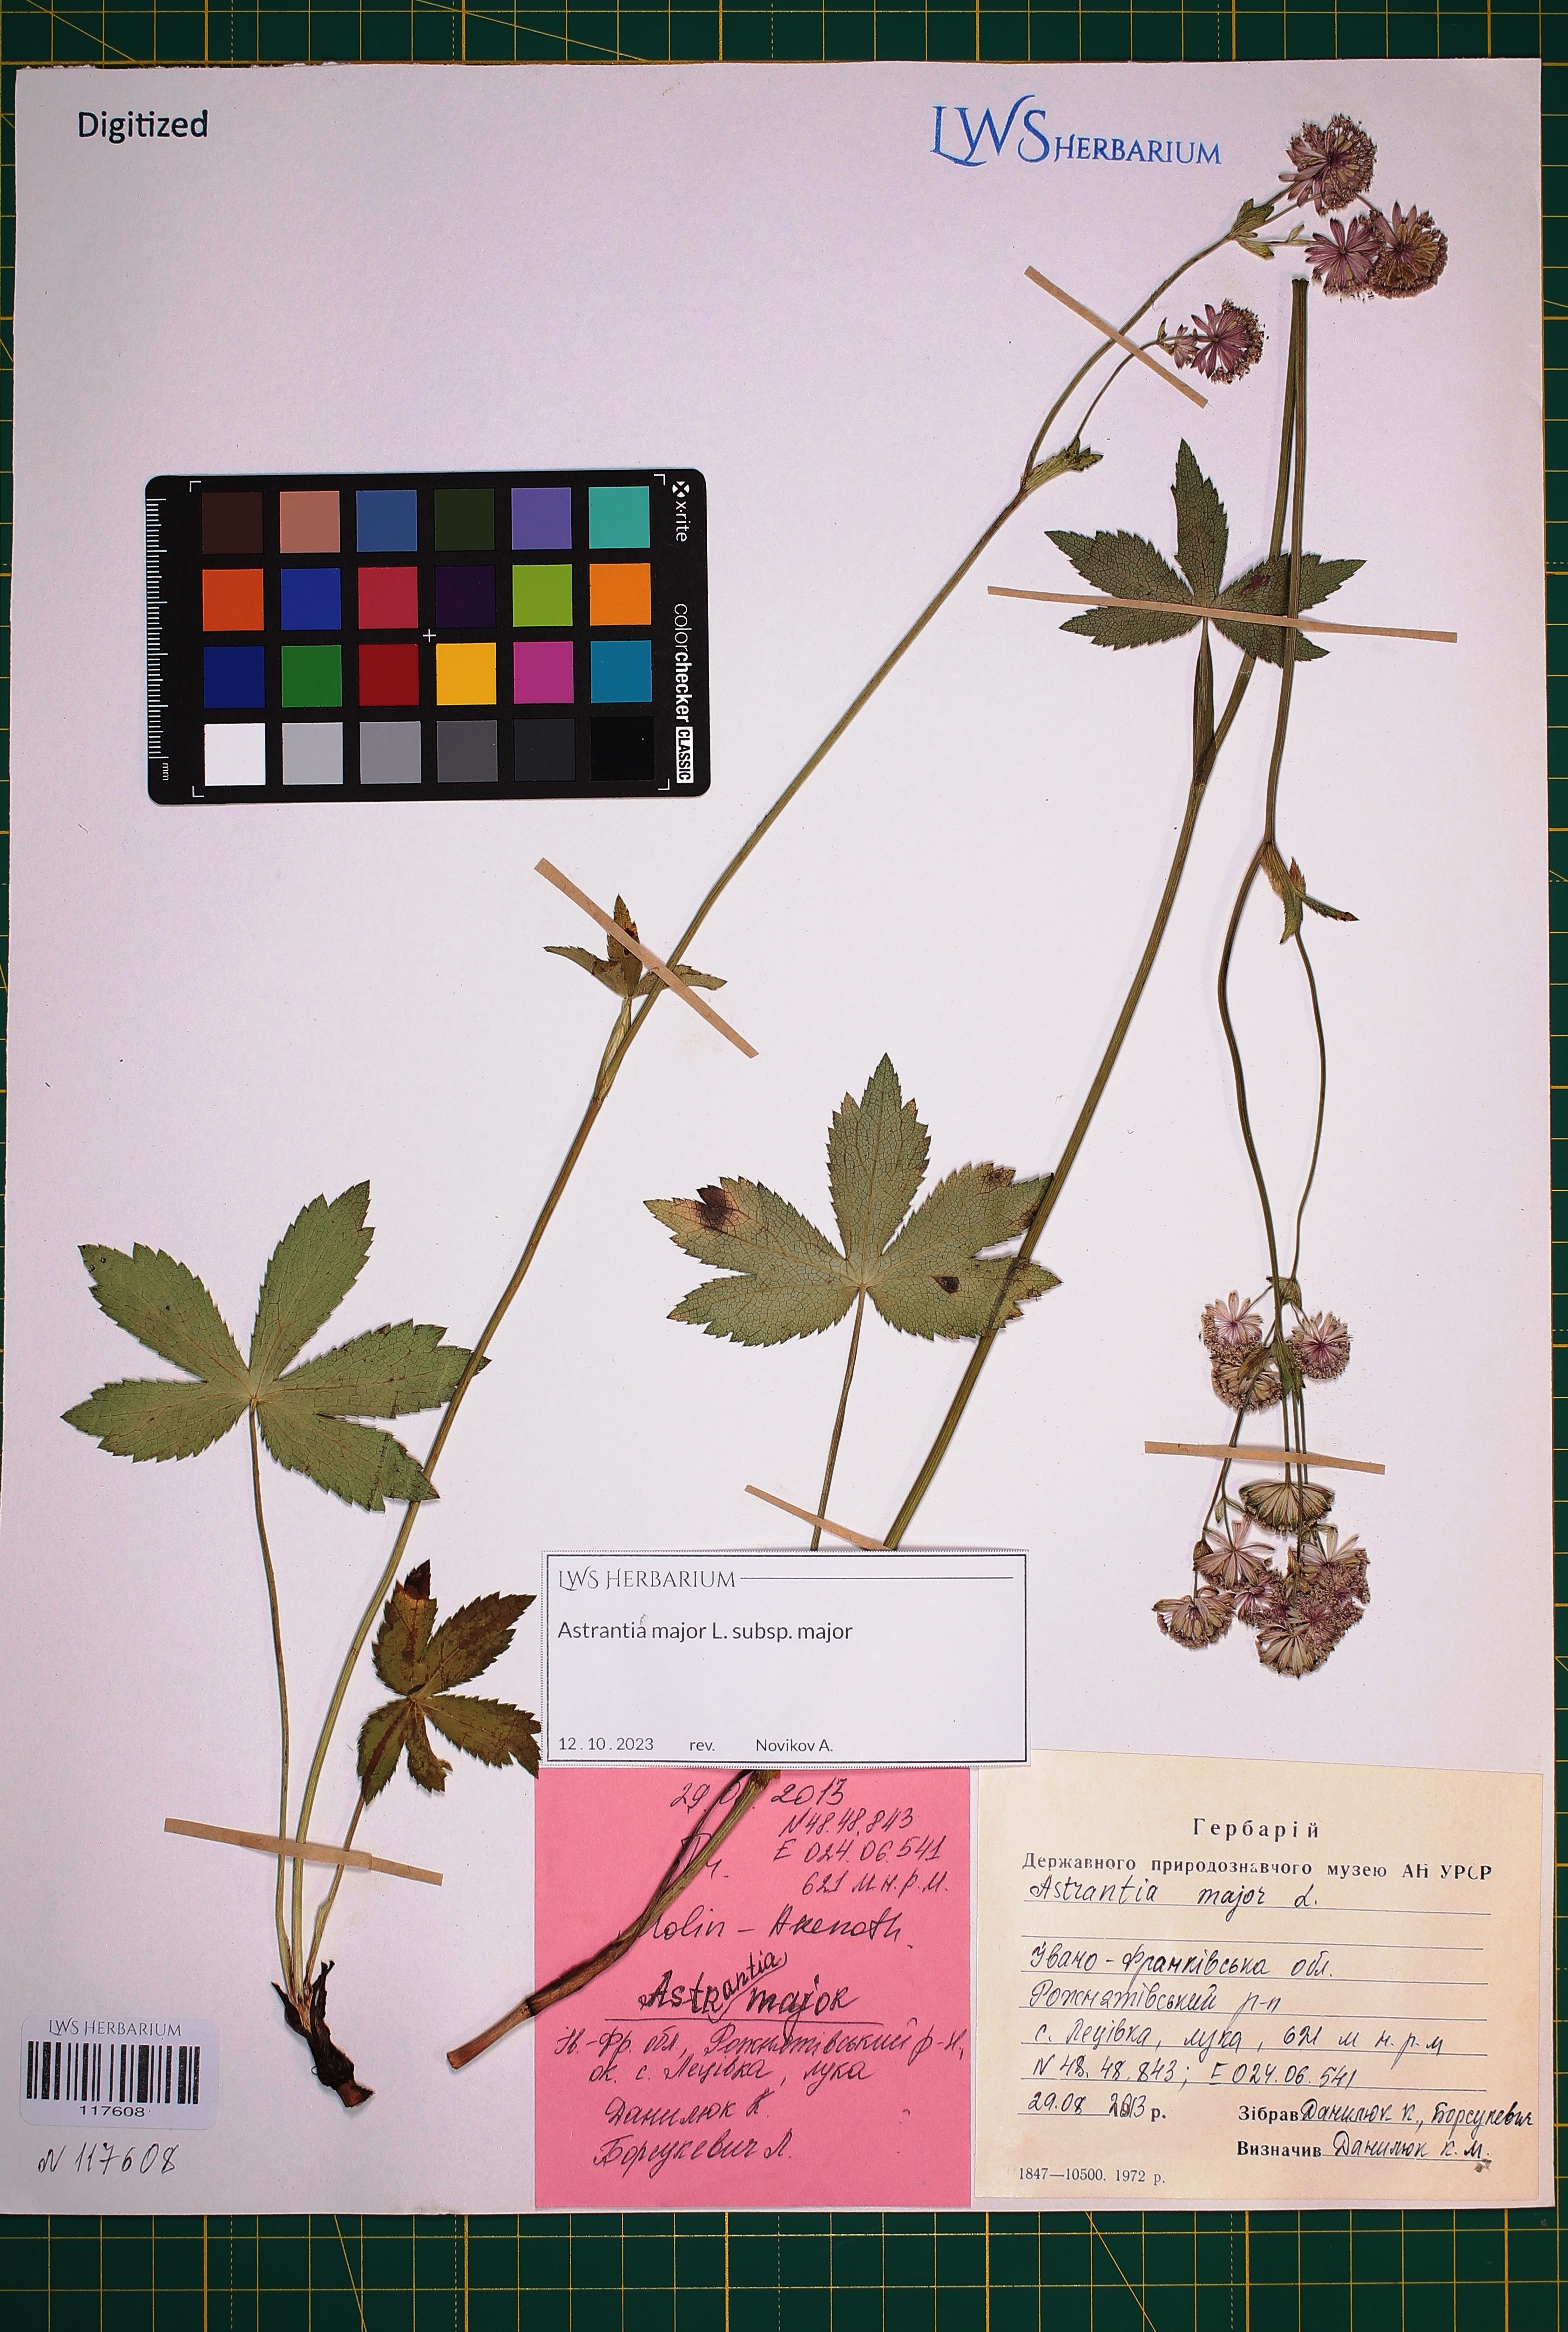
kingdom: Plantae
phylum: Tracheophyta
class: Magnoliopsida
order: Apiales
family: Apiaceae
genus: Astrantia
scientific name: Astrantia major
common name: Greater masterwort
